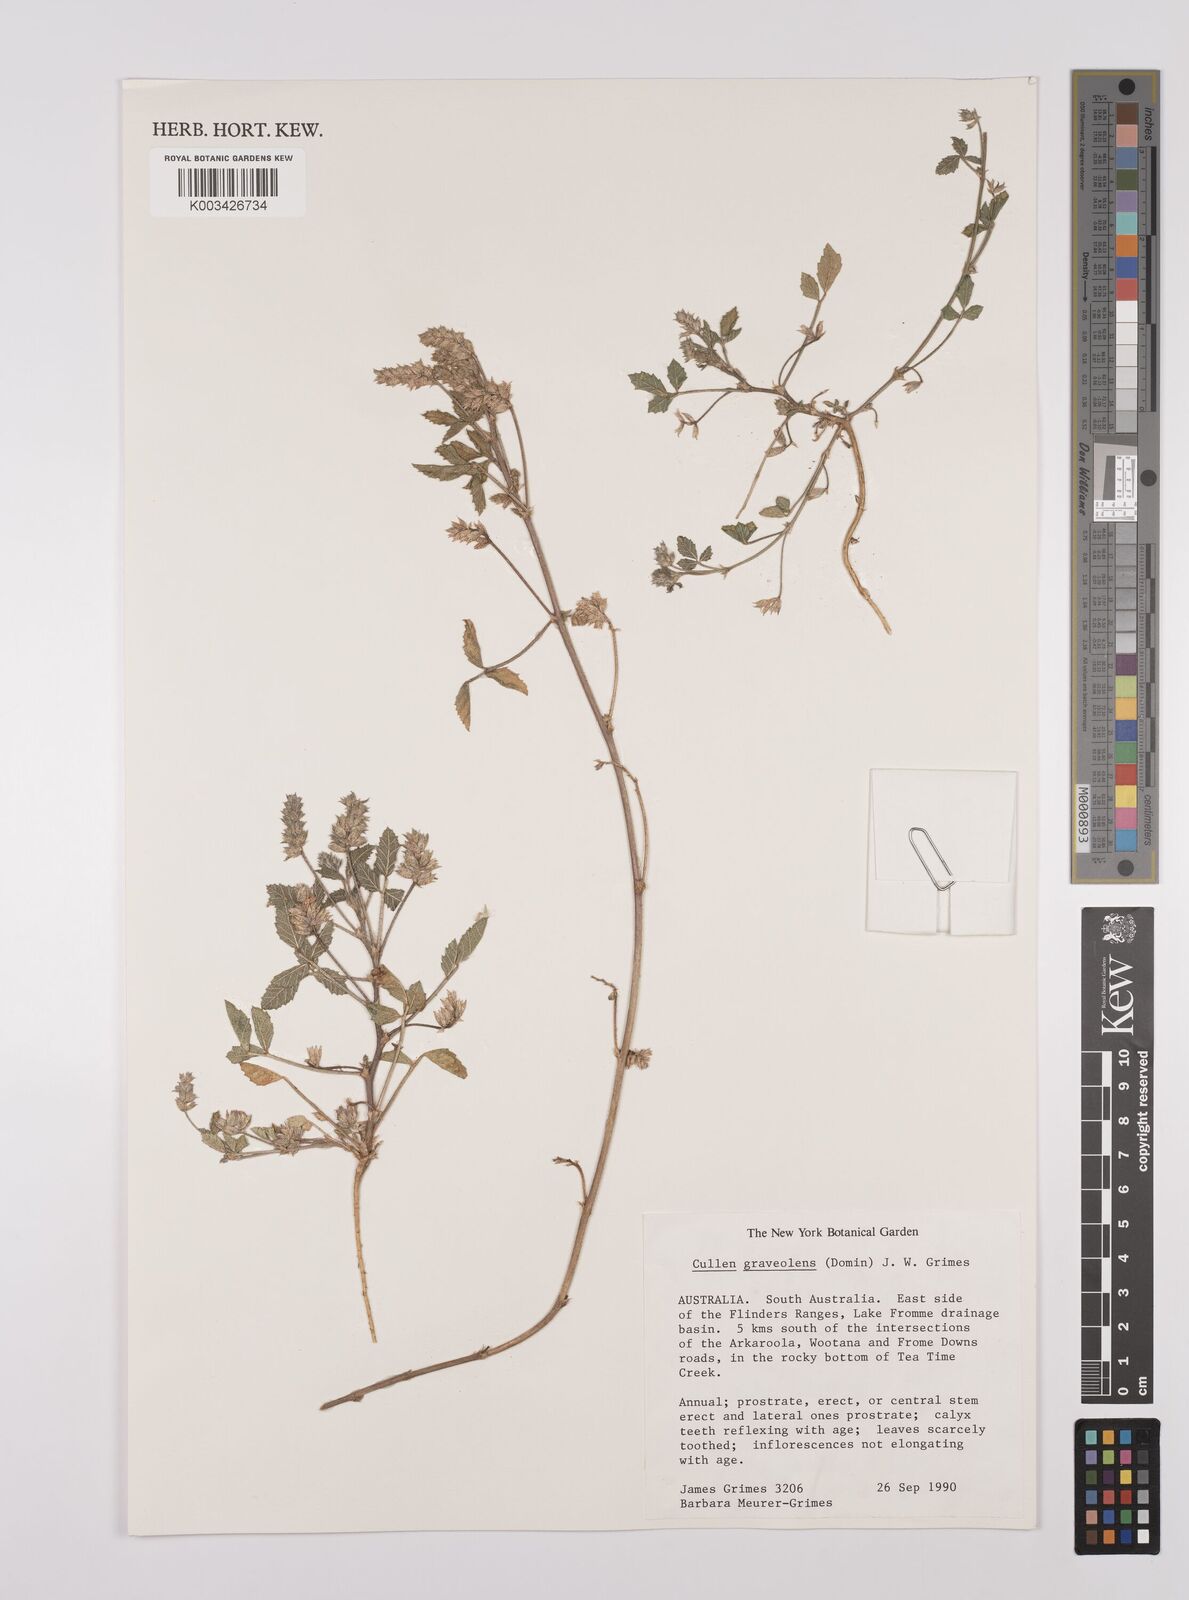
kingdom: Plantae
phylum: Tracheophyta
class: Magnoliopsida
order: Fabales
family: Fabaceae
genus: Cullen
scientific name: Cullen graveolens
